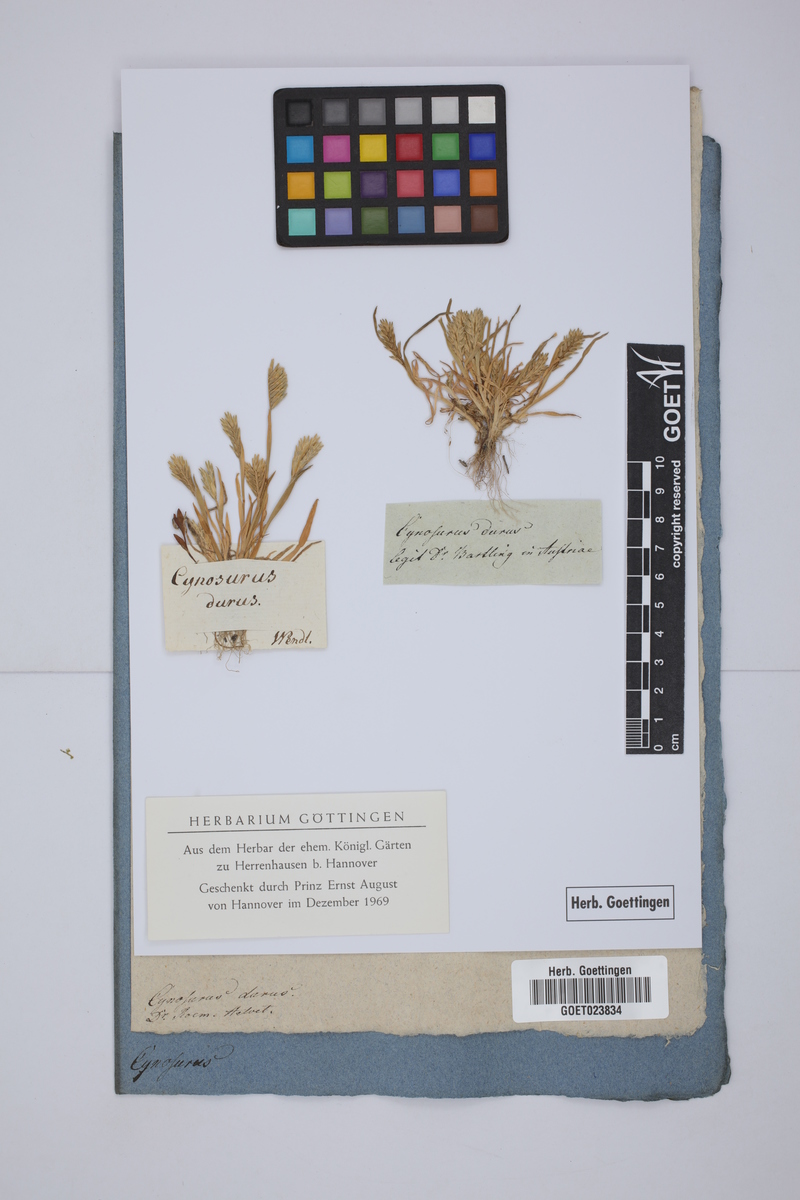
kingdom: Plantae
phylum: Tracheophyta
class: Liliopsida
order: Poales
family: Poaceae
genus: Sclerochloa
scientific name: Sclerochloa dura
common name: Common hardgrass
